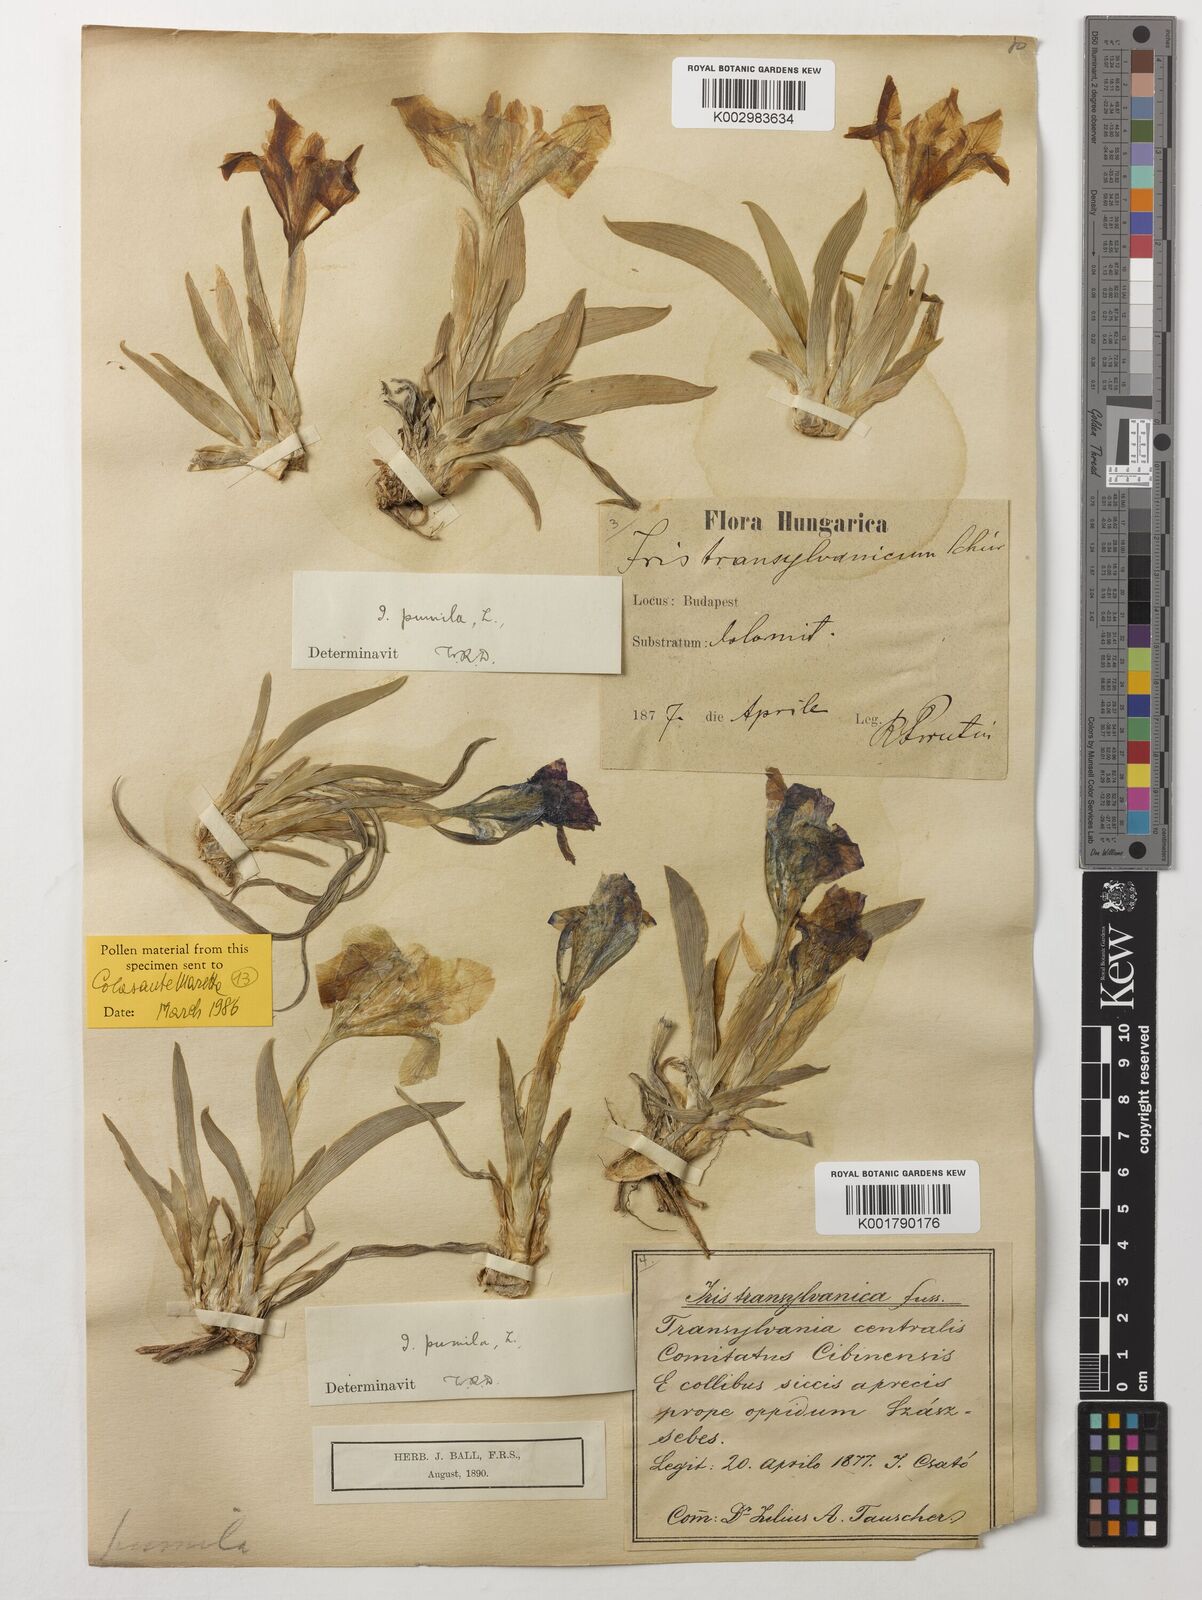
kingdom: Plantae
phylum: Tracheophyta
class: Liliopsida
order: Asparagales
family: Iridaceae
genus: Iris
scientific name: Iris pumila
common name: Dwarf iris
